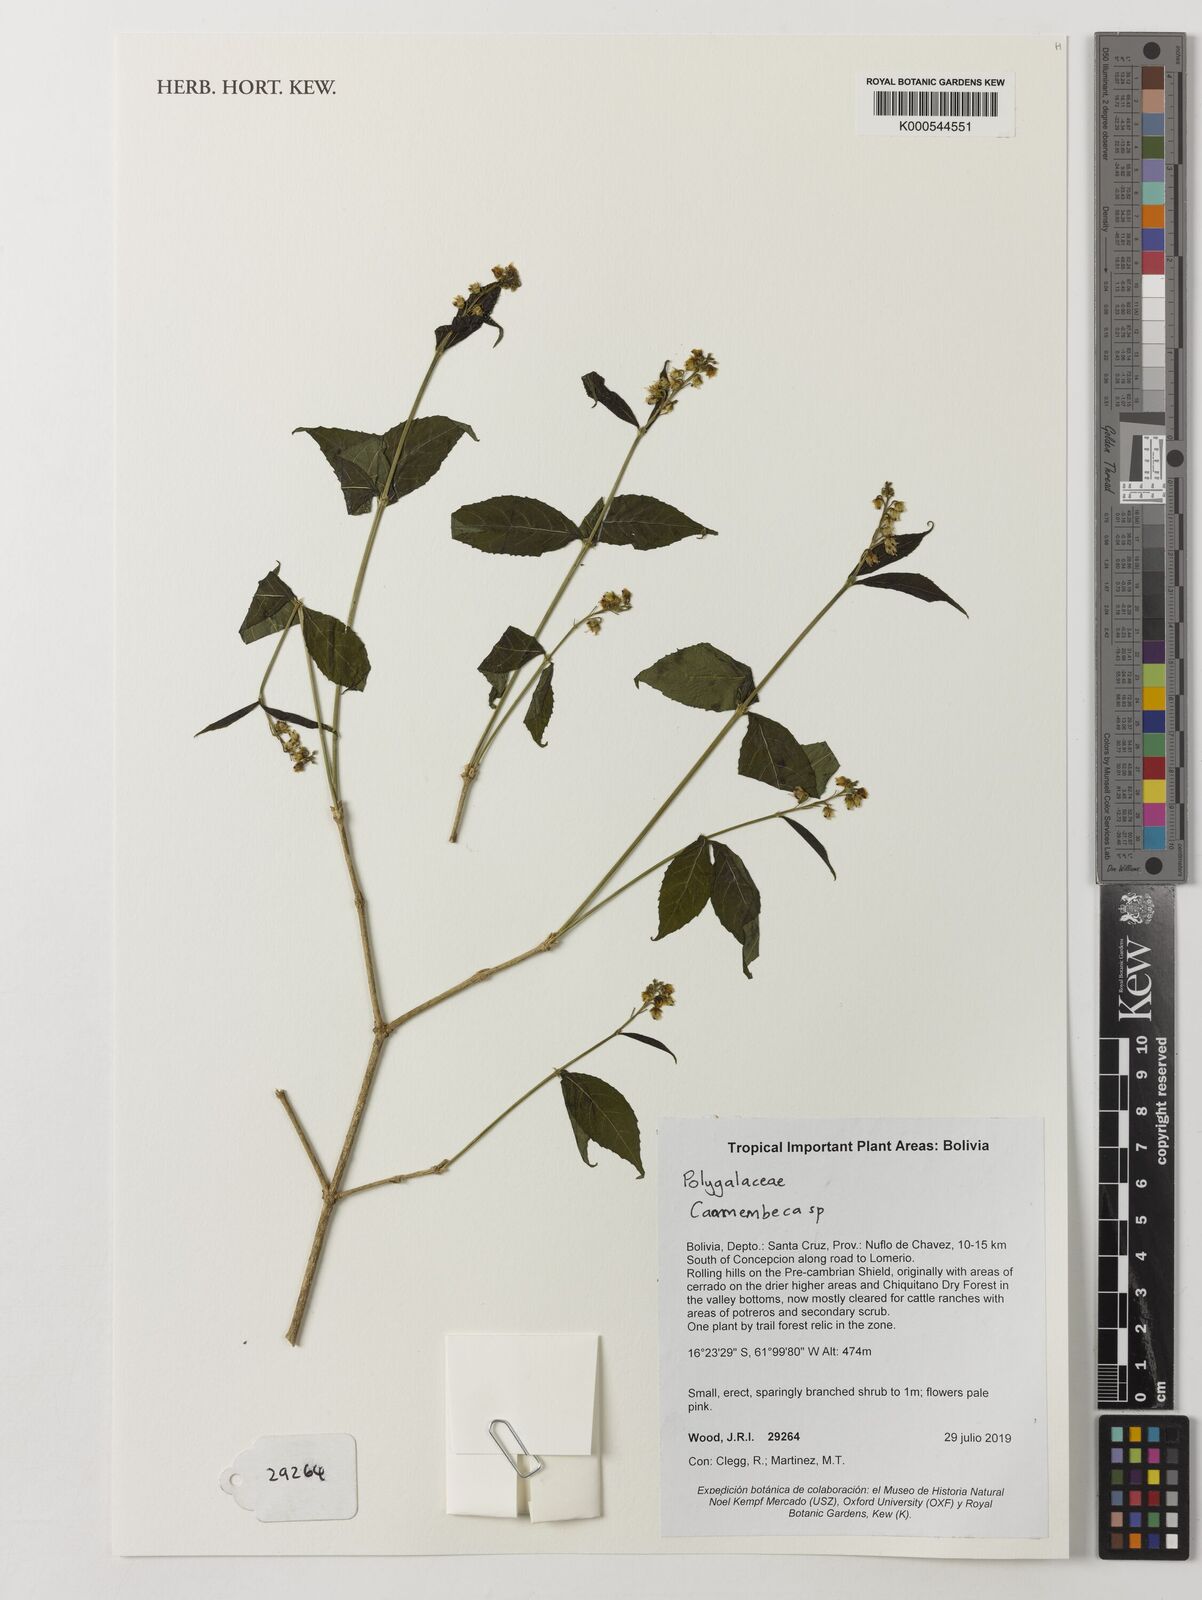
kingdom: Plantae
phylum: Tracheophyta
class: Magnoliopsida
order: Fabales
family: Polygalaceae
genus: Caamembeca
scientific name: Caamembeca
